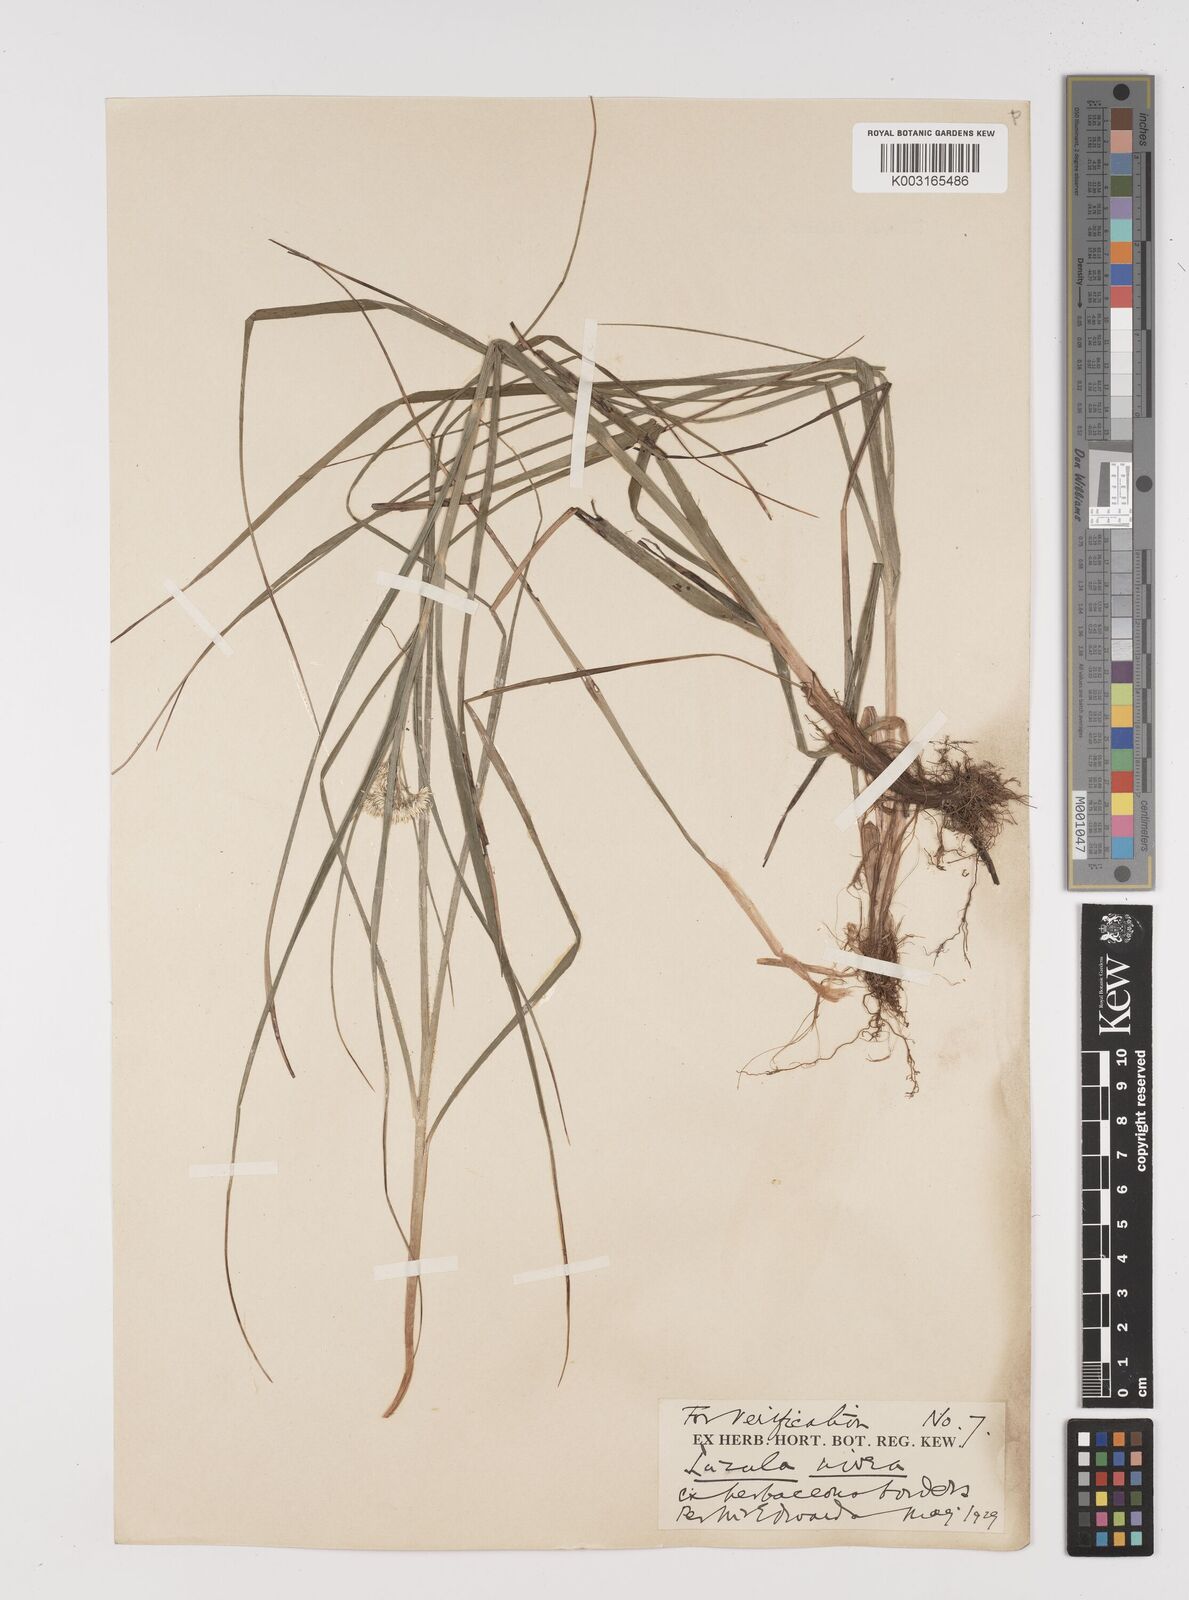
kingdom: Plantae
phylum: Tracheophyta
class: Liliopsida
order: Poales
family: Juncaceae
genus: Luzula
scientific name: Luzula nivea
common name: Snow-white wood-rush
